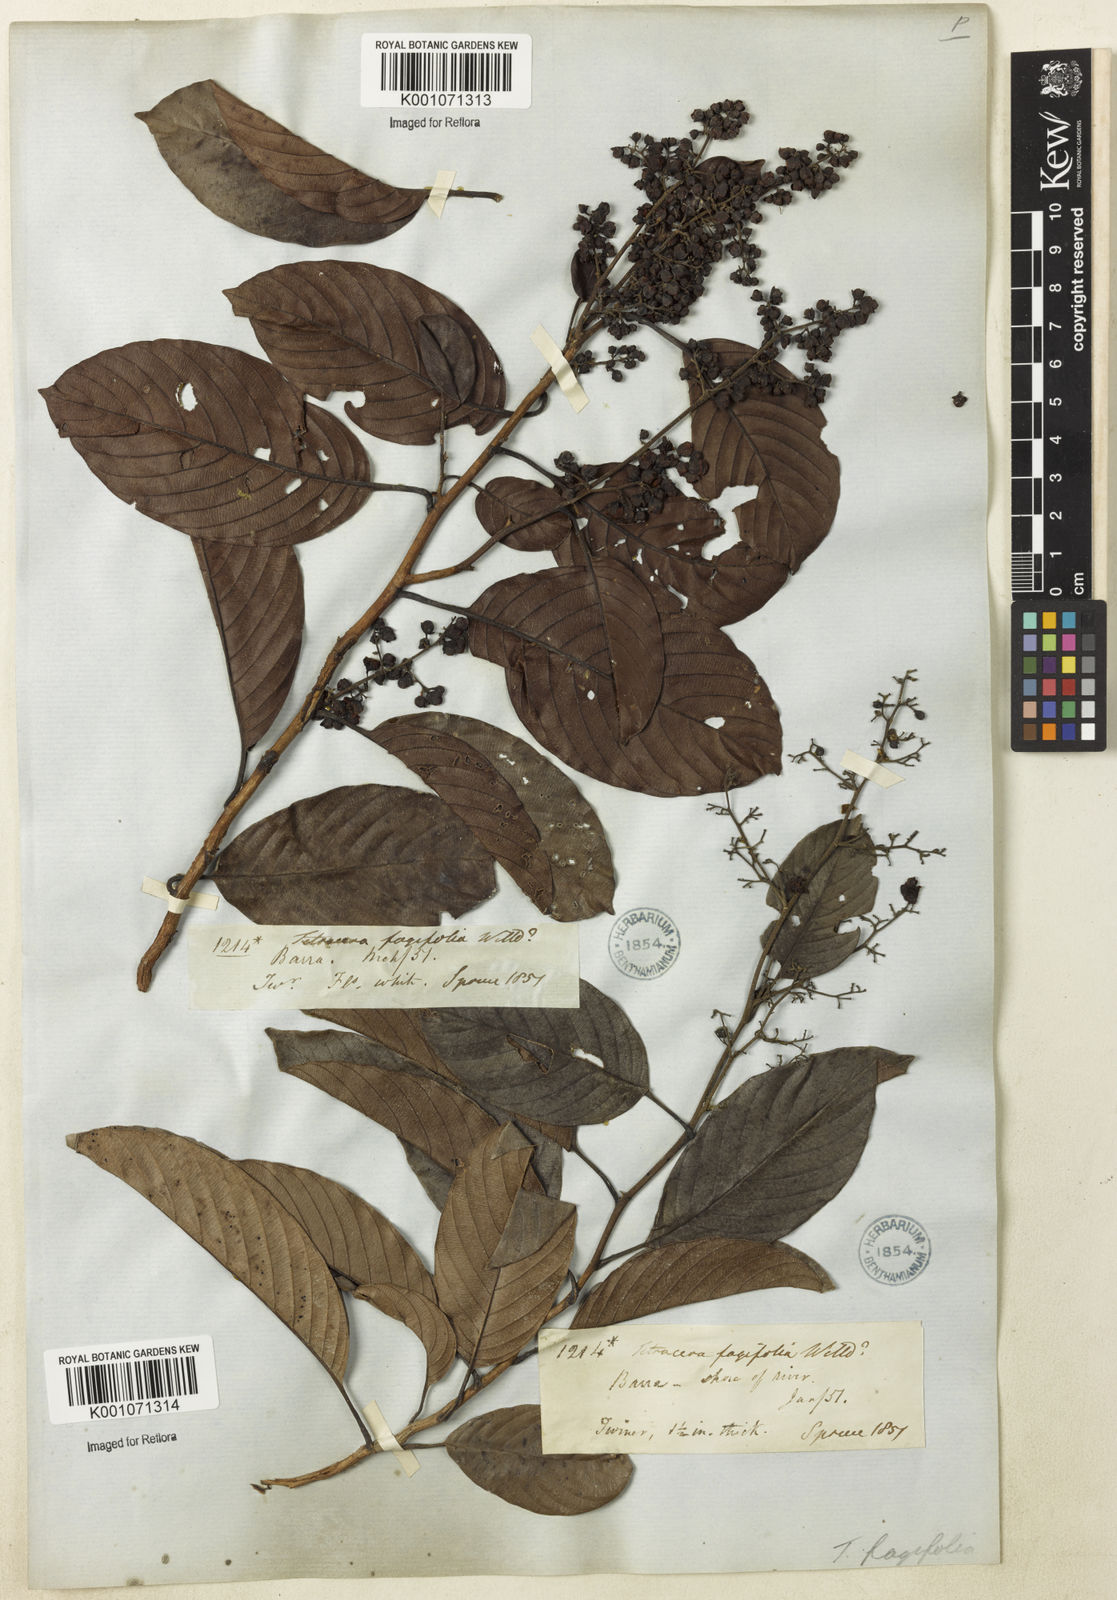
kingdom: Plantae
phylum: Tracheophyta
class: Magnoliopsida
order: Dilleniales
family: Dilleniaceae
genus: Tetracera
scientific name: Tetracera willdenowiana
